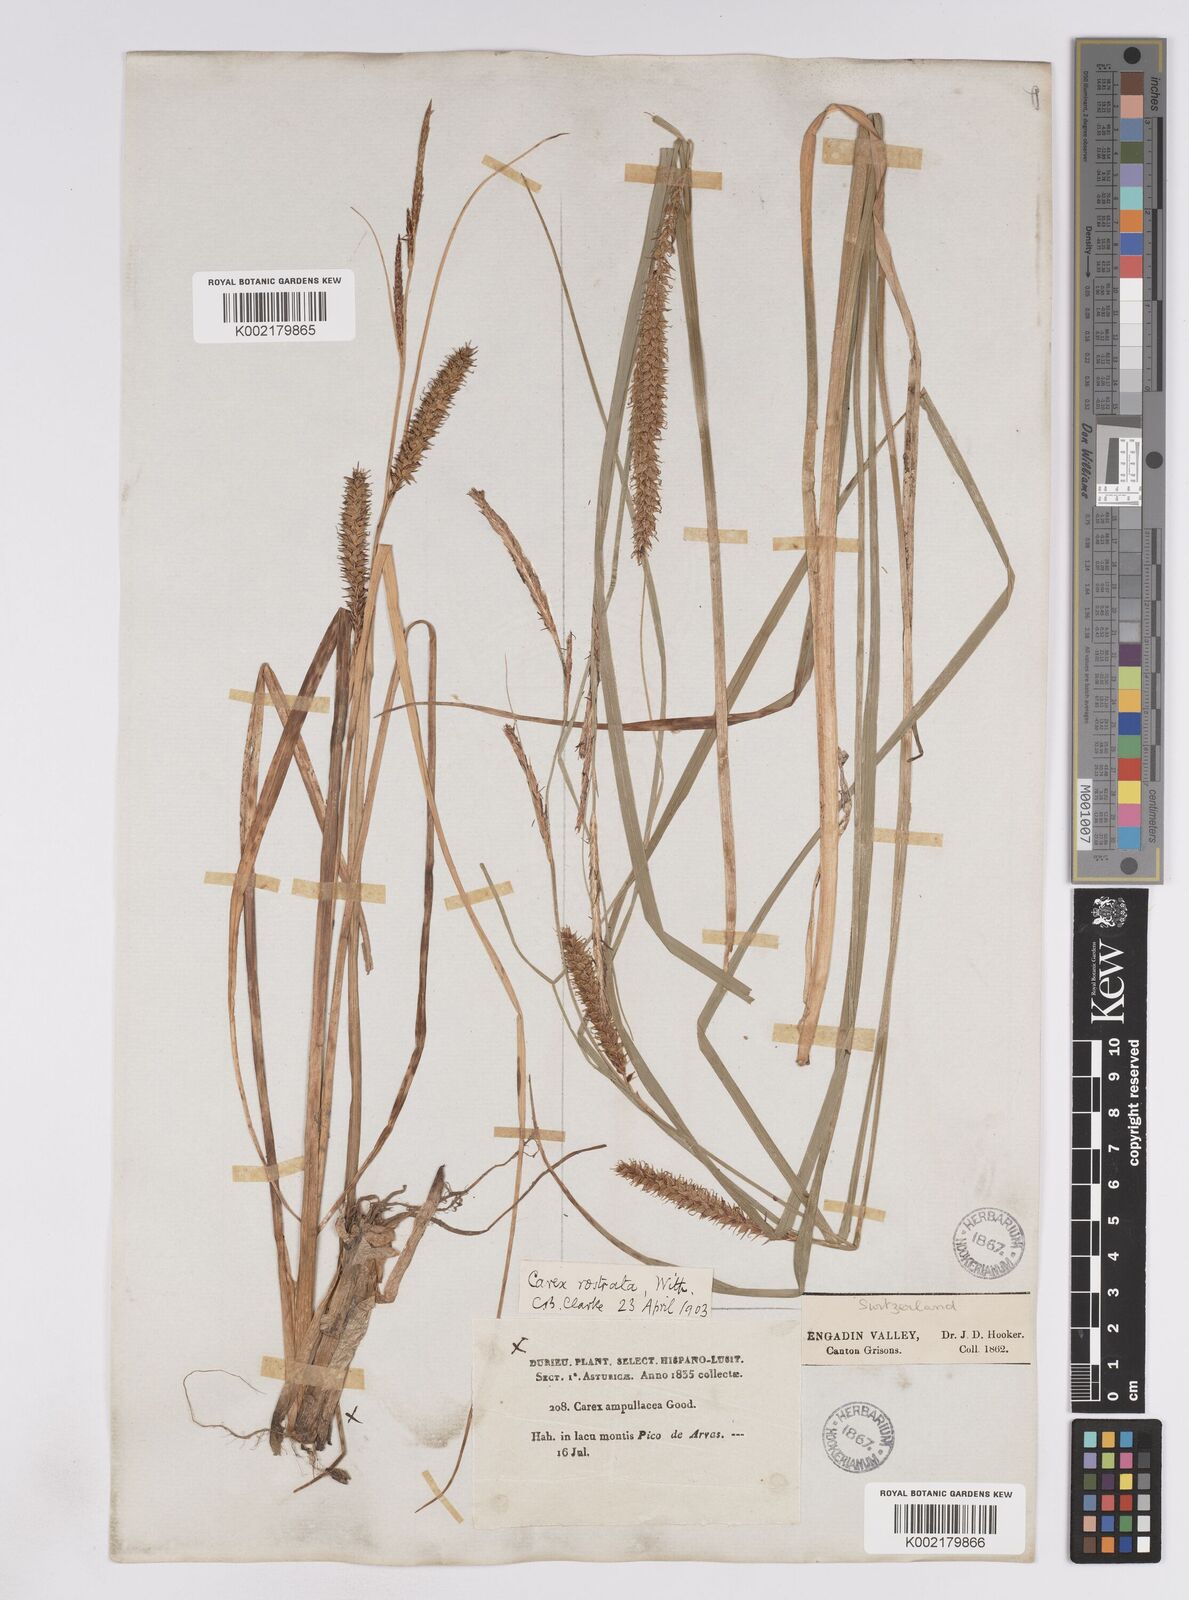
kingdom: Plantae
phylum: Tracheophyta
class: Liliopsida
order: Poales
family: Cyperaceae
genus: Carex
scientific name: Carex rostrata
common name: Bottle sedge
